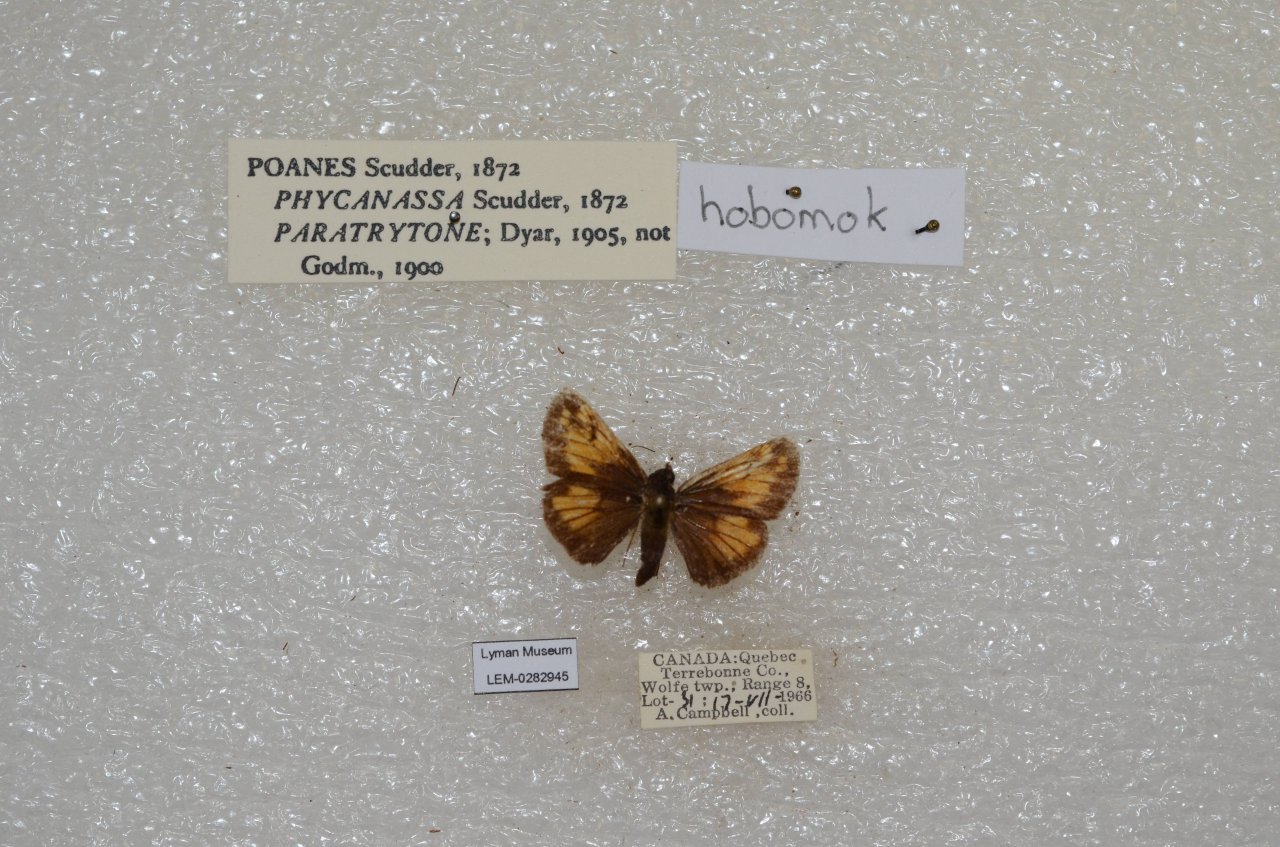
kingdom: Animalia
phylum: Arthropoda
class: Insecta
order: Lepidoptera
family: Hesperiidae
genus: Lon
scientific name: Lon hobomok
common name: Hobomok Skipper
